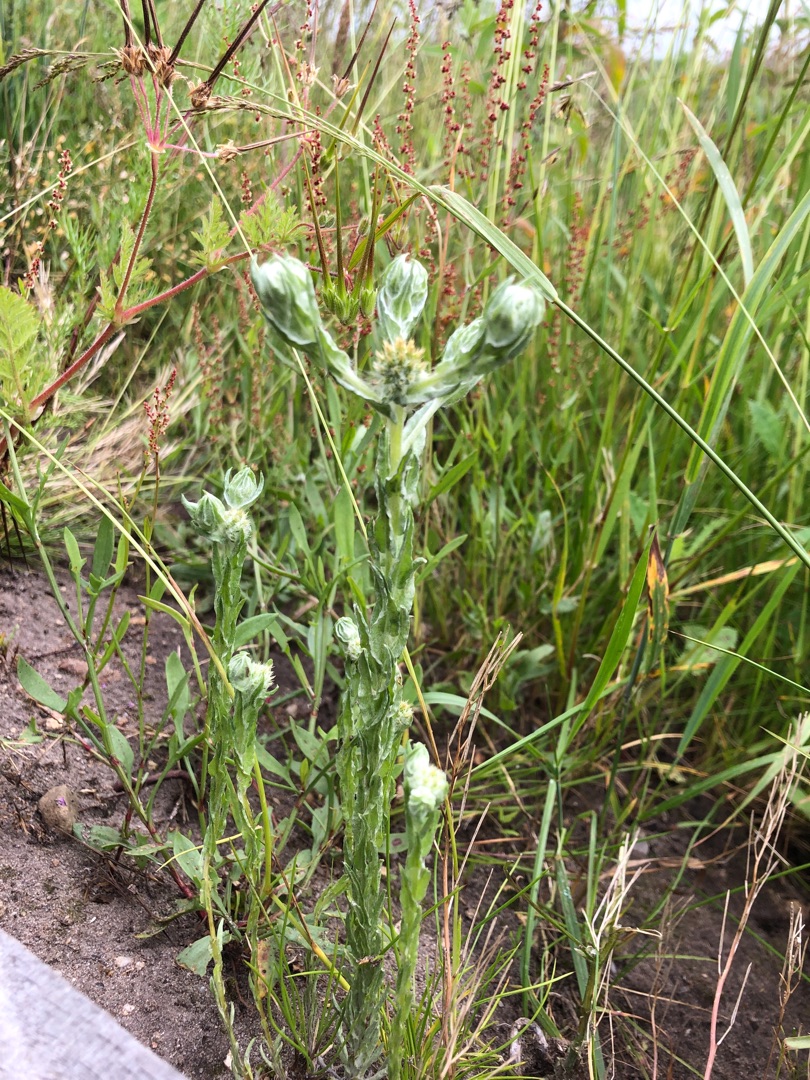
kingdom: Plantae
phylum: Tracheophyta
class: Magnoliopsida
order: Asterales
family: Asteraceae
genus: Filago
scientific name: Filago germanica
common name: Kugle-museurt
